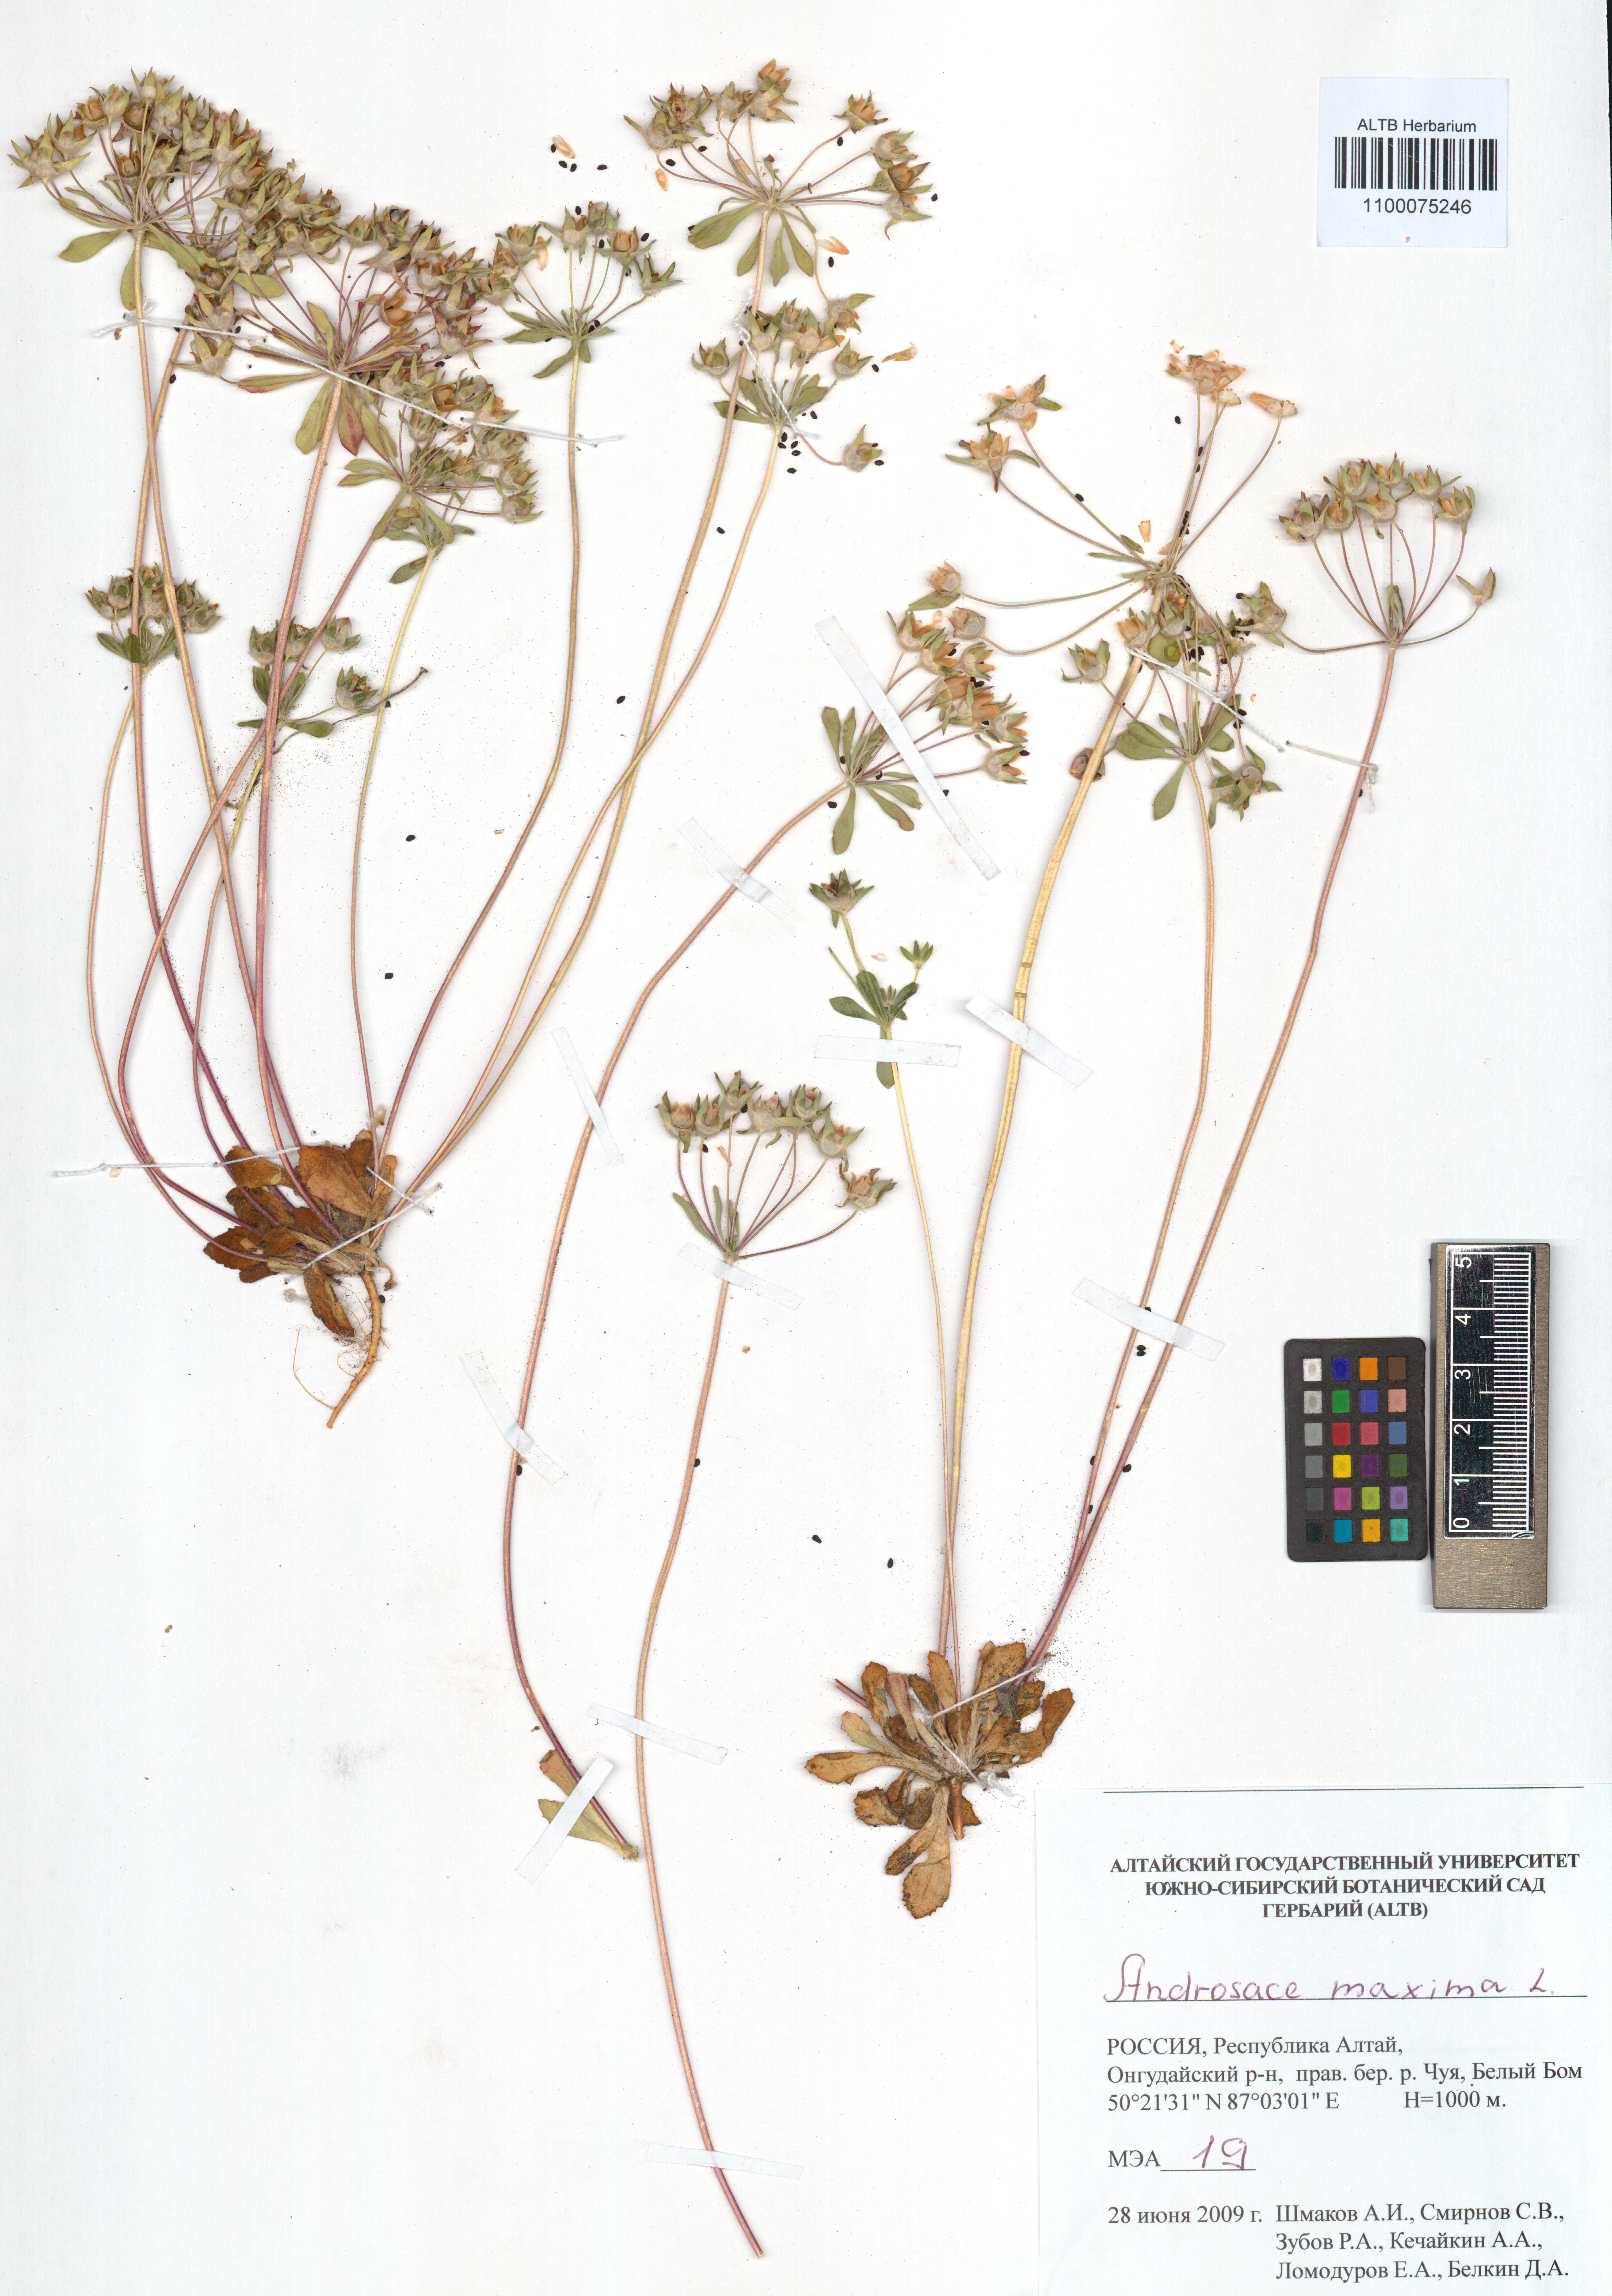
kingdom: Plantae
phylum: Tracheophyta
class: Magnoliopsida
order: Ericales
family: Primulaceae
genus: Androsace
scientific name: Androsace maxima
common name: Annual androsace
